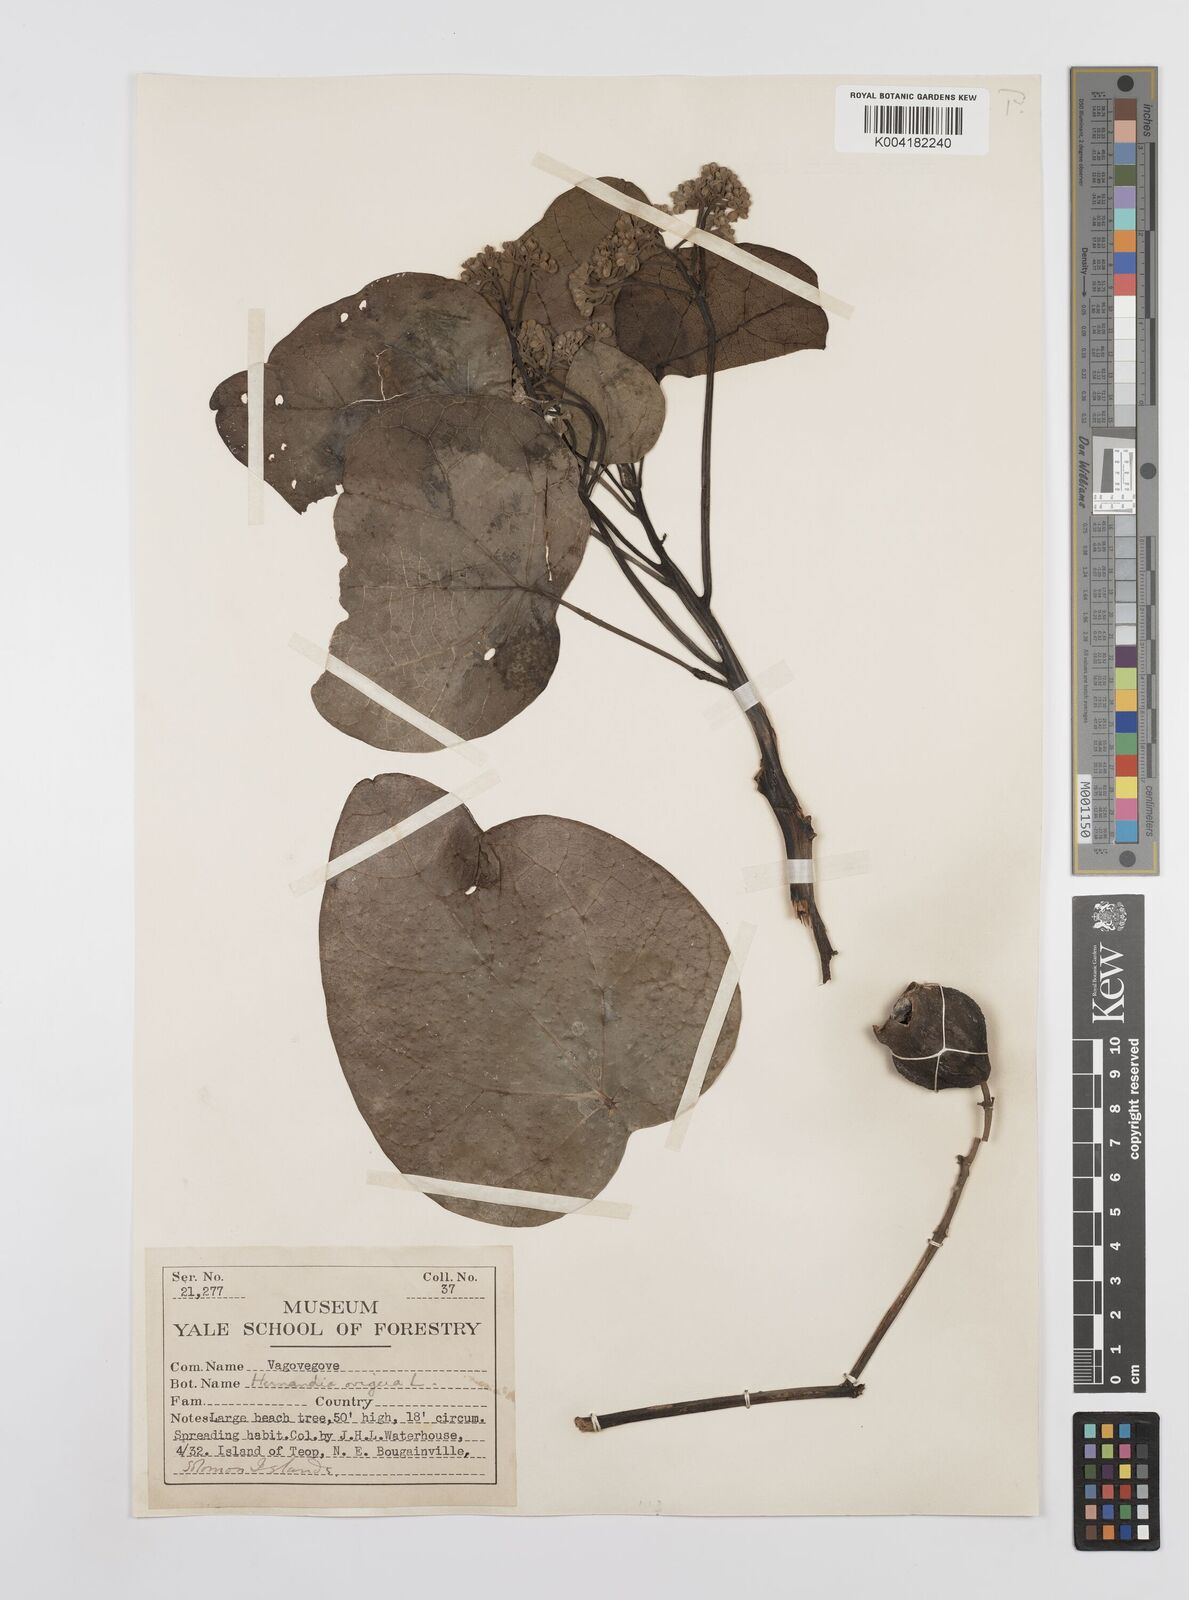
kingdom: Plantae
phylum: Tracheophyta
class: Magnoliopsida
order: Laurales
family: Hernandiaceae
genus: Hernandia
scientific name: Hernandia
